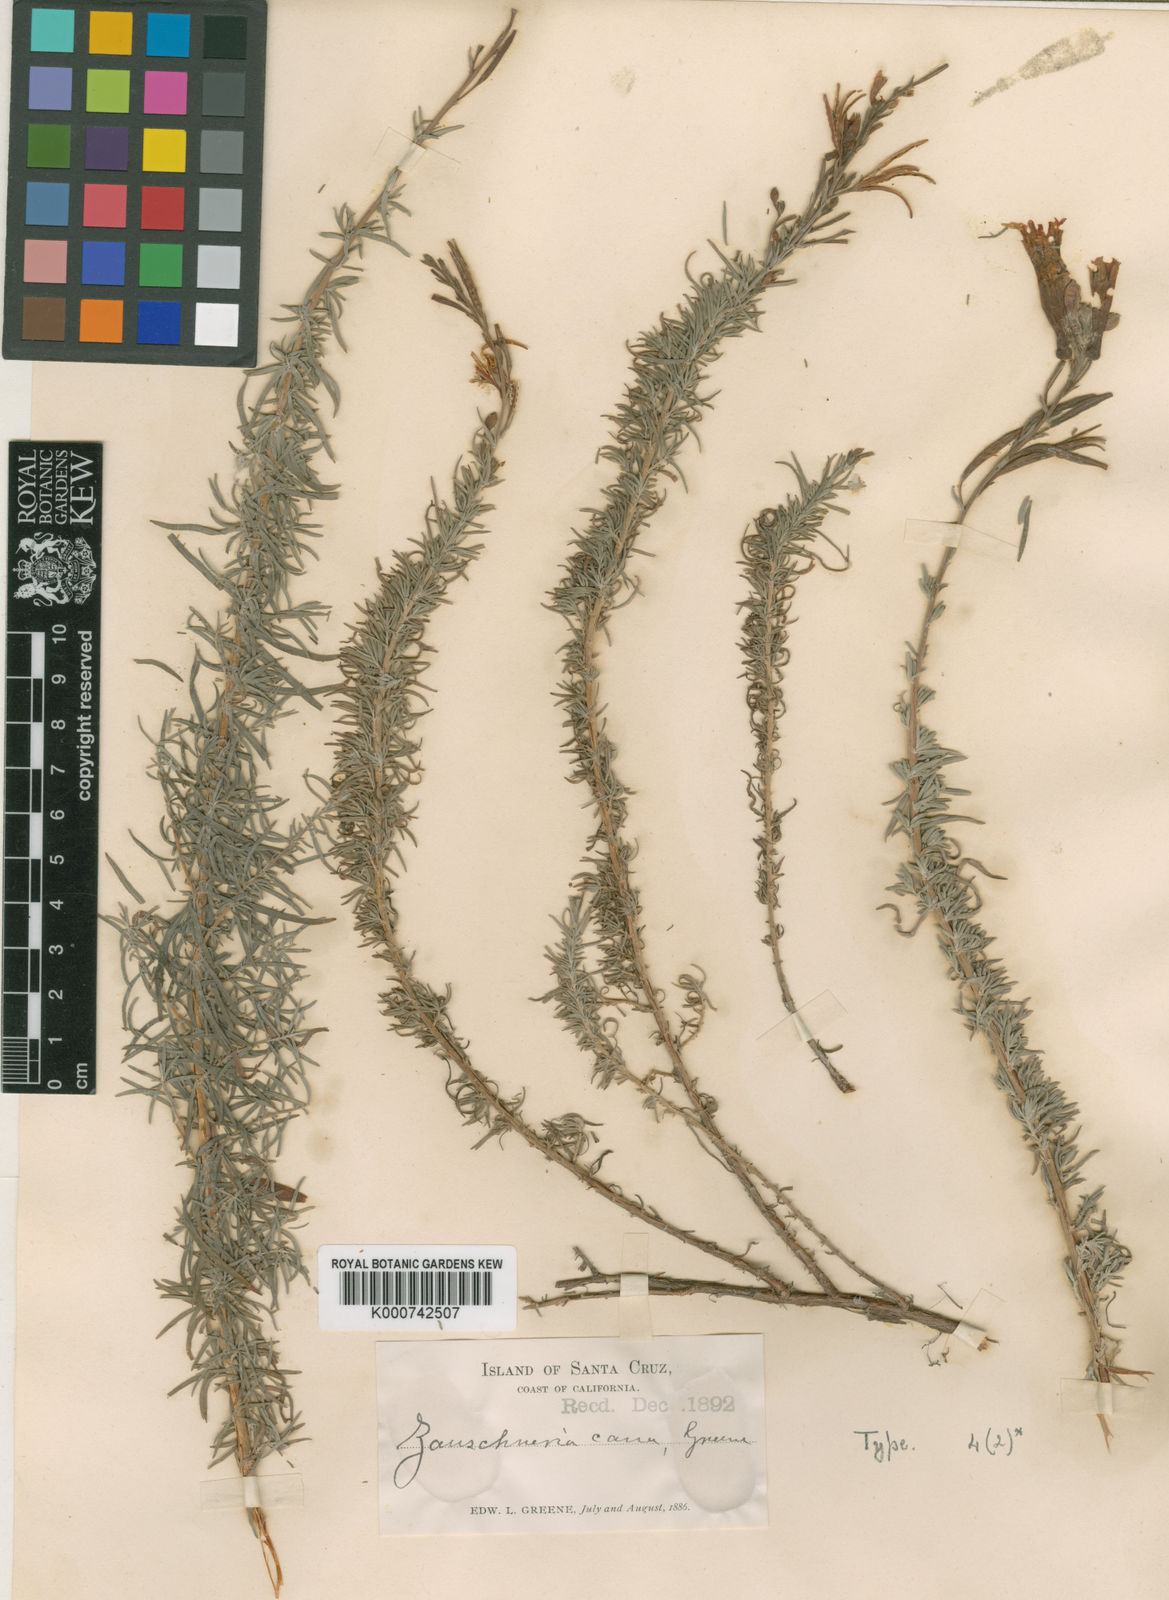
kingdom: Plantae
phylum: Tracheophyta
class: Magnoliopsida
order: Myrtales
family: Onagraceae
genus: Epilobium
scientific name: Epilobium
